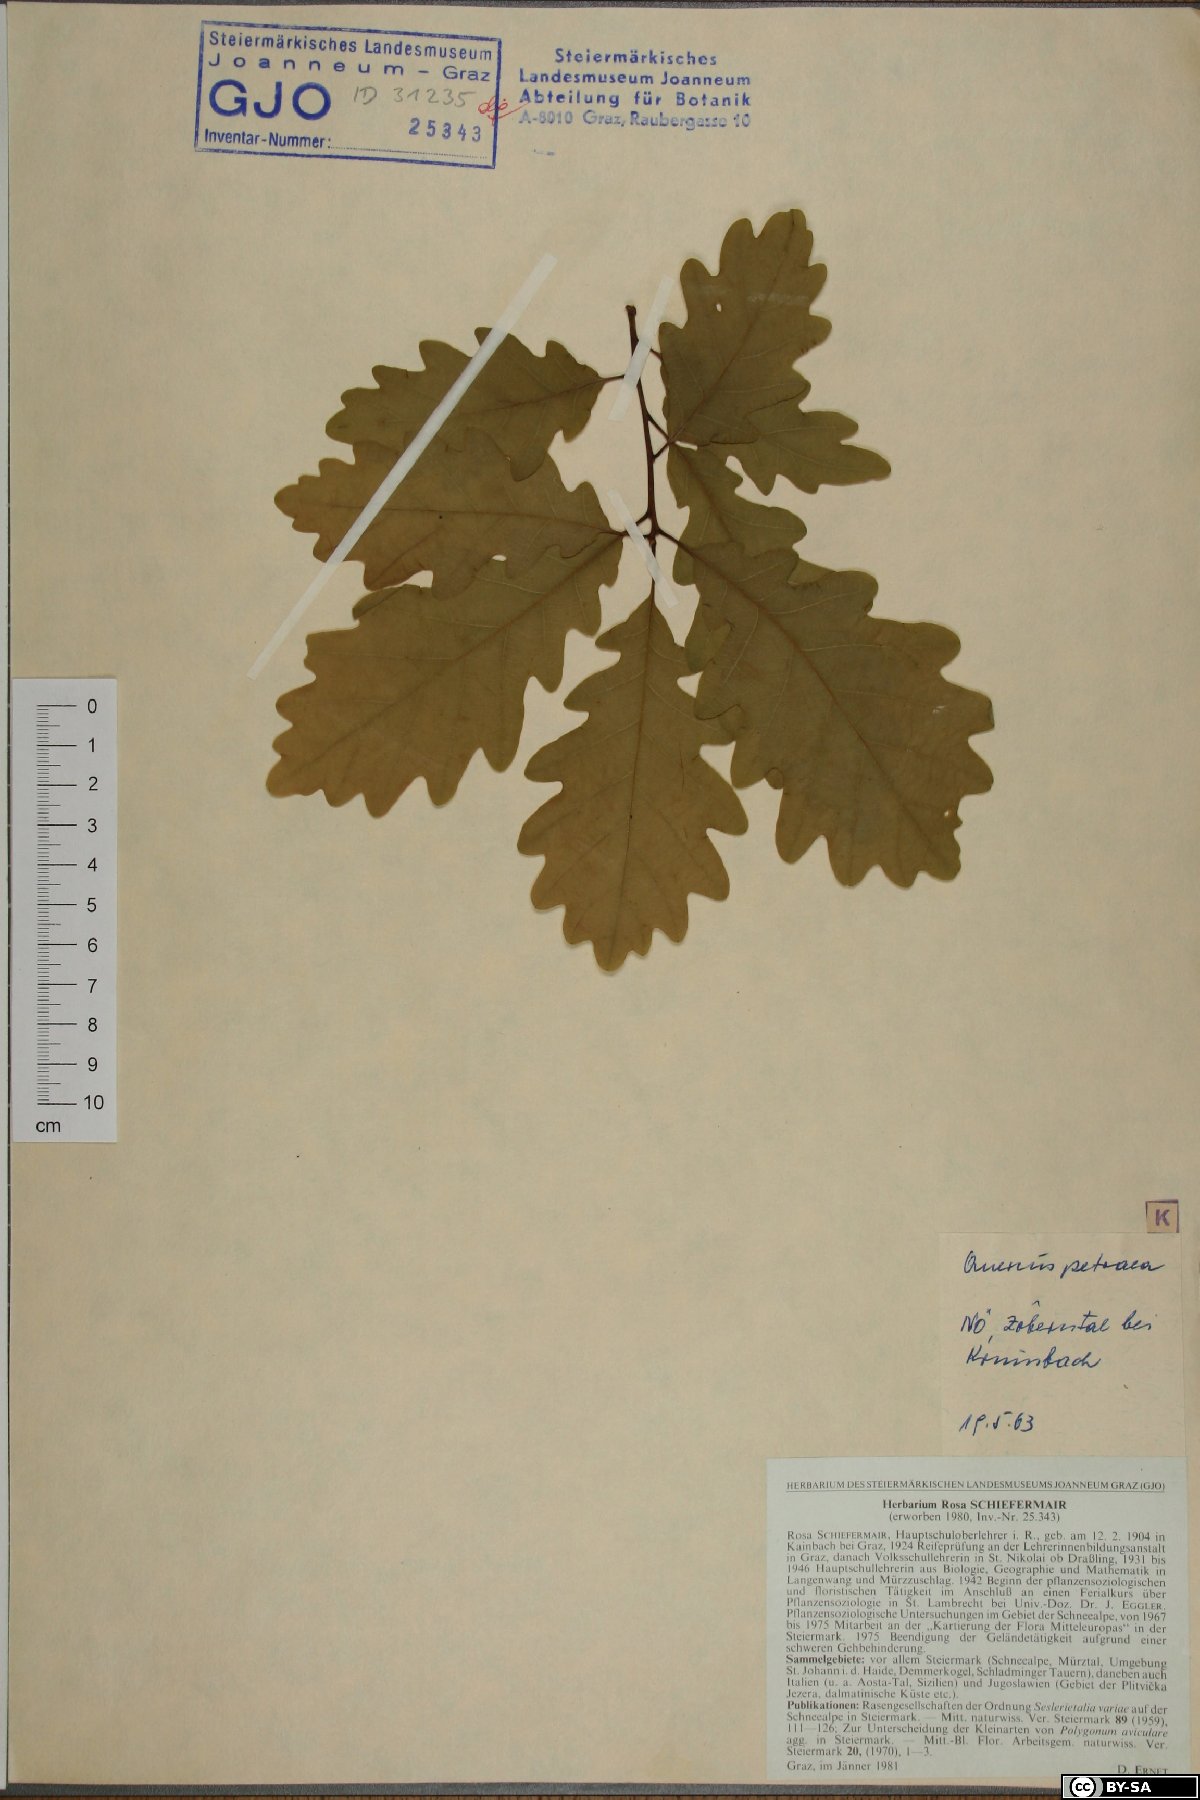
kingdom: Plantae
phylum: Tracheophyta
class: Magnoliopsida
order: Fagales
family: Fagaceae
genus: Quercus
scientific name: Quercus petraea
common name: Sessile oak
